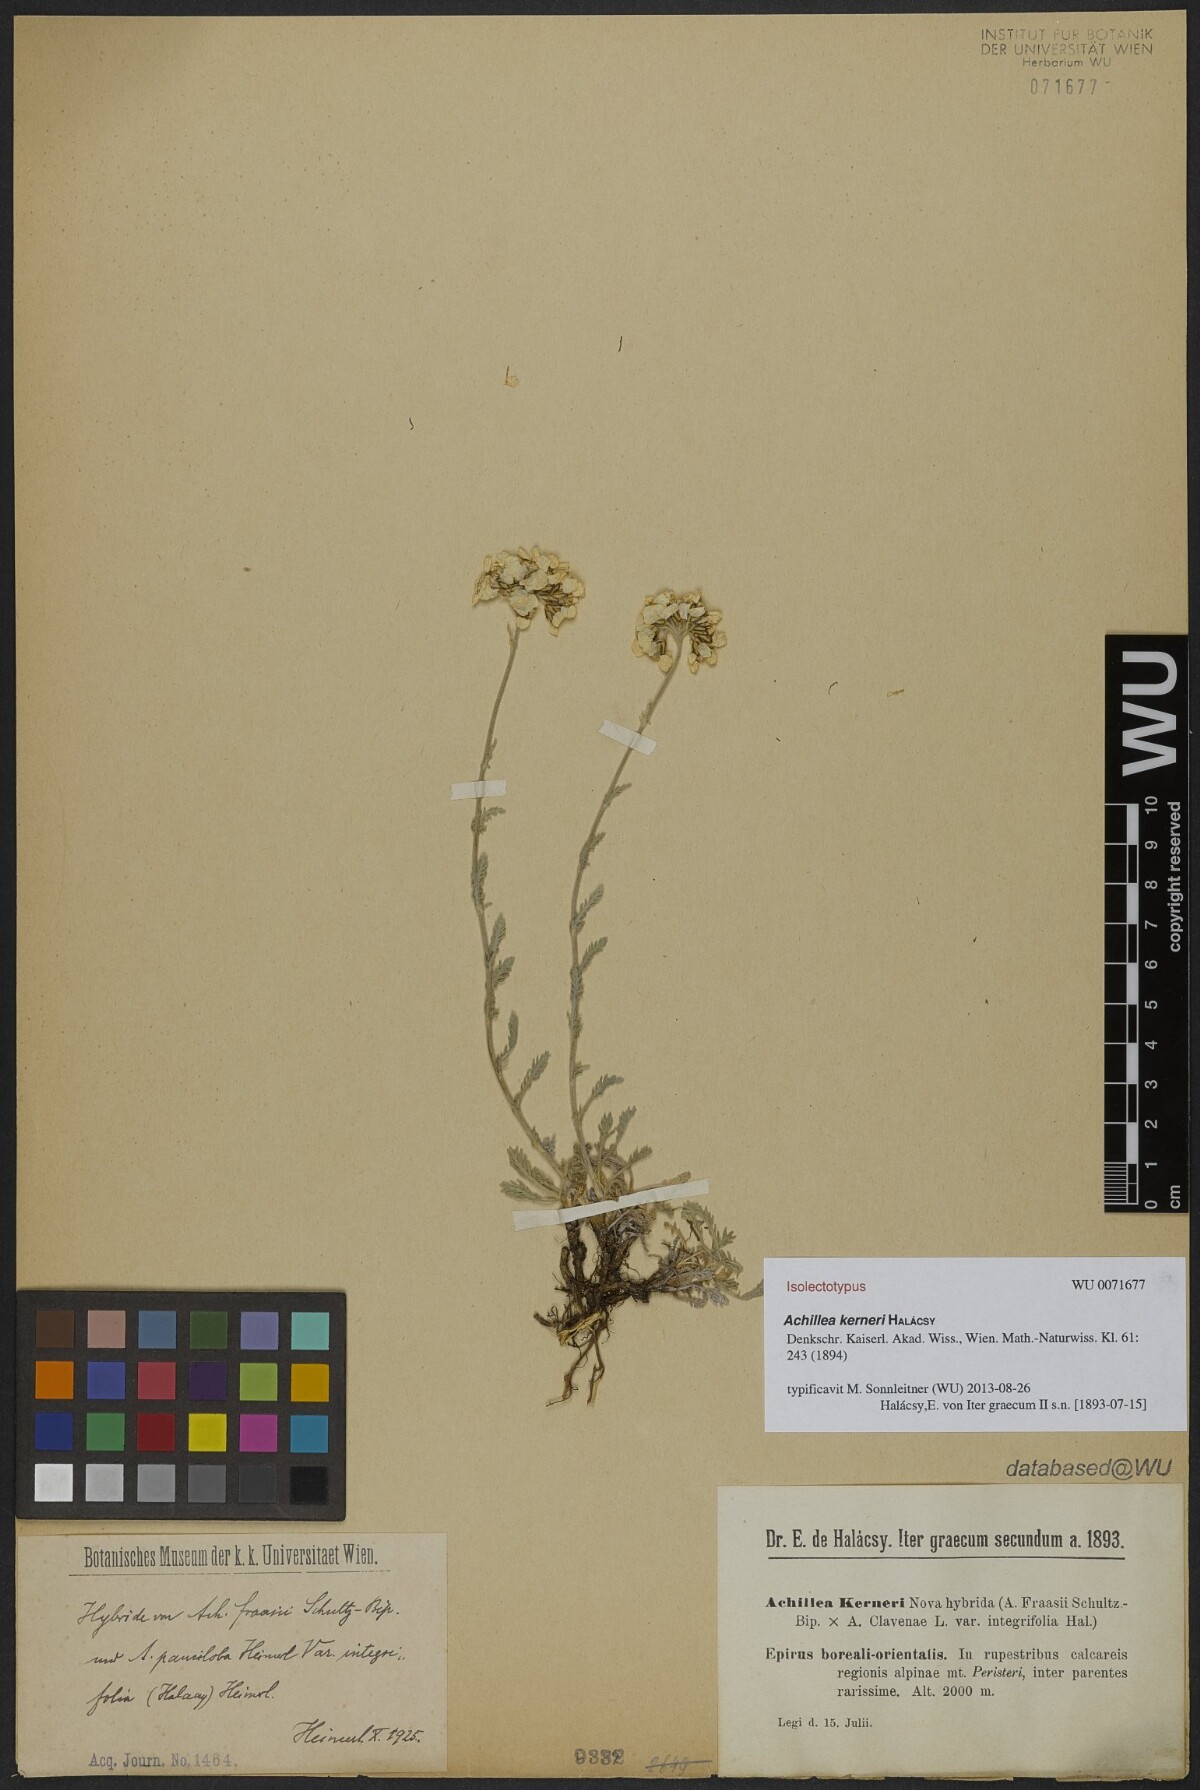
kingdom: Plantae
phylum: Tracheophyta
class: Magnoliopsida
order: Asterales
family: Asteraceae
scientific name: Asteraceae
